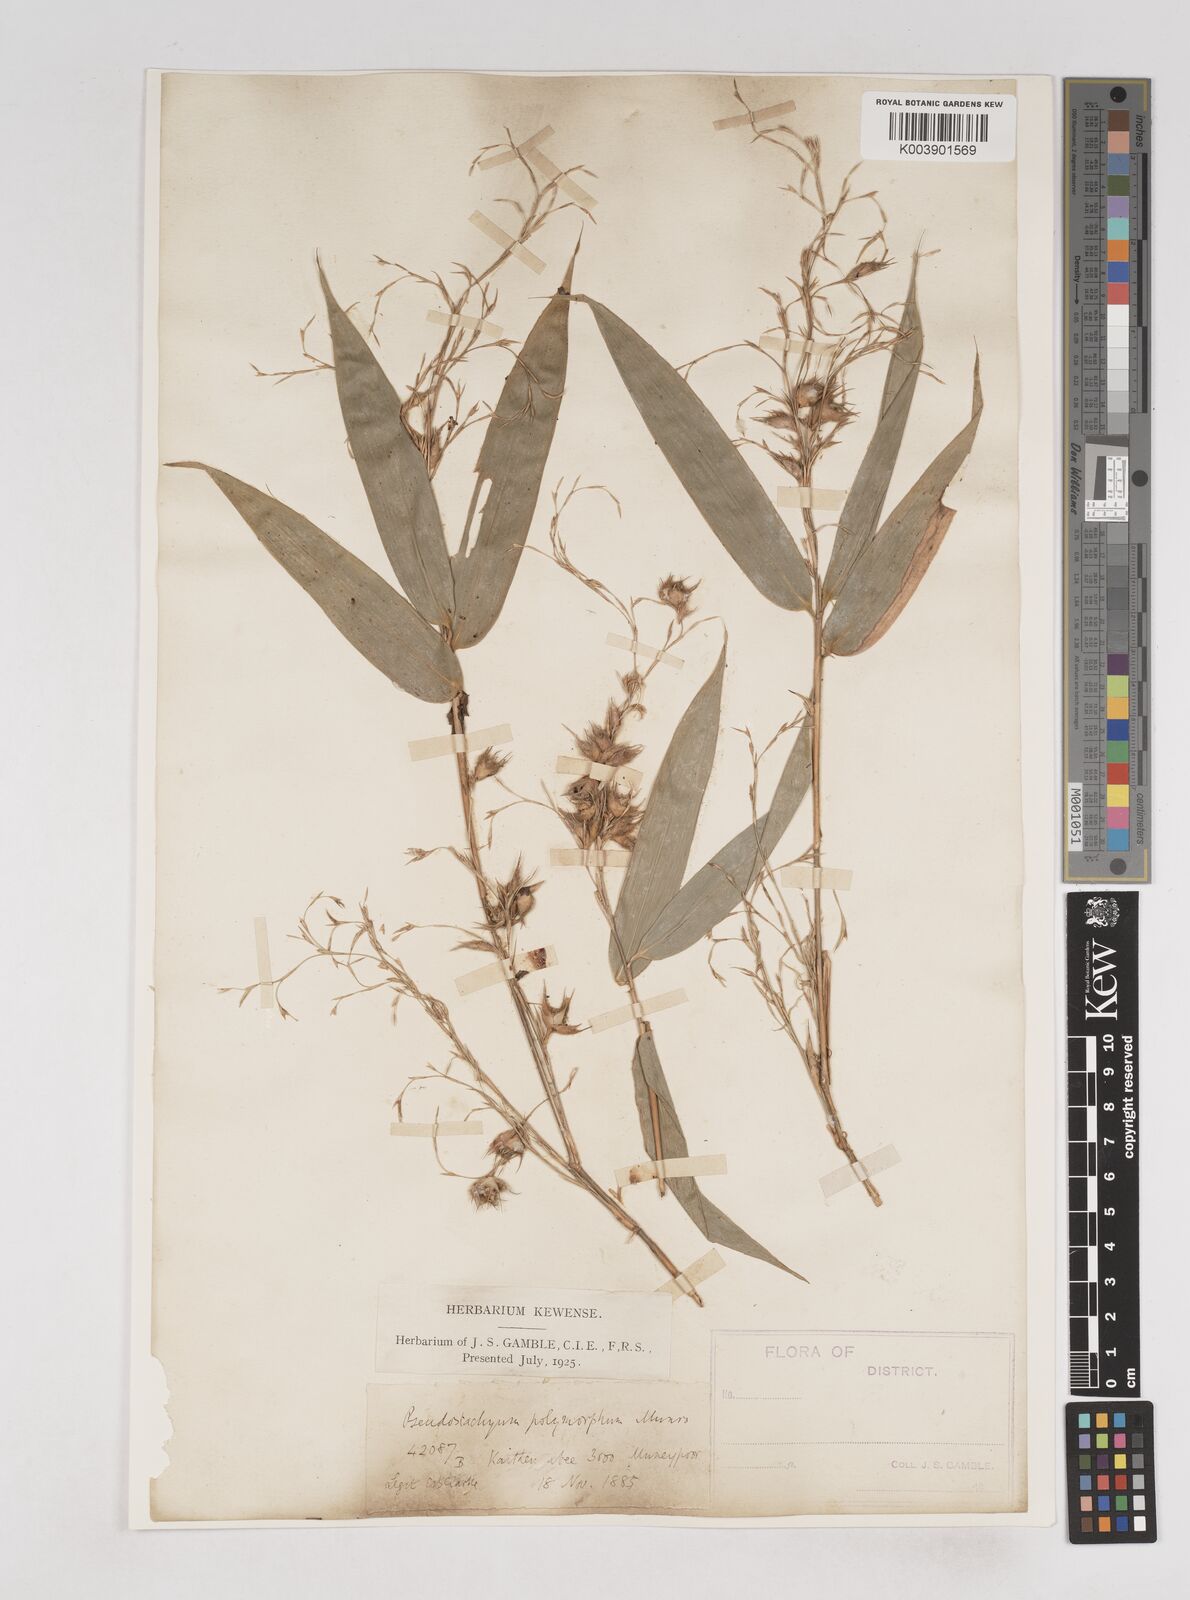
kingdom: Plantae
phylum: Tracheophyta
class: Liliopsida
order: Poales
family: Poaceae
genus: Pseudostachyum
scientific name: Pseudostachyum polymorphum
